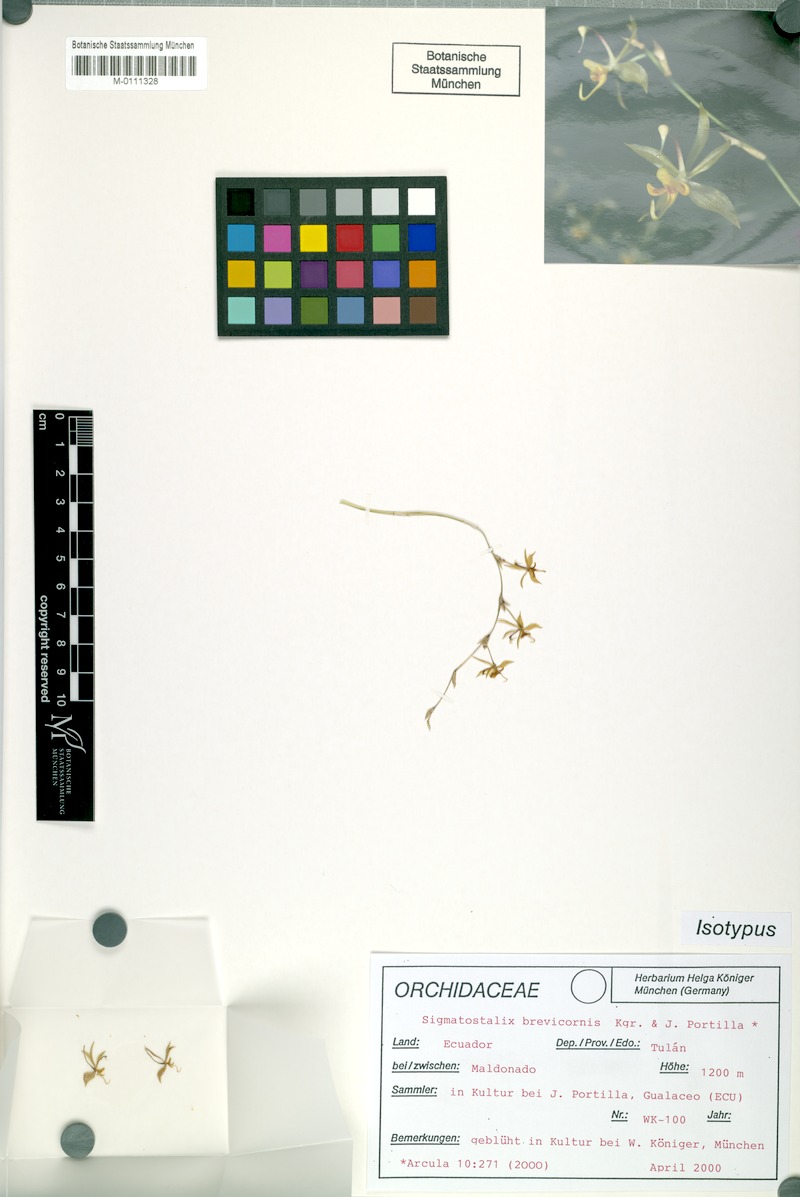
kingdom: Plantae
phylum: Tracheophyta
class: Liliopsida
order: Asparagales
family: Orchidaceae
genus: Oncidium
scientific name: Oncidium brevicorne
